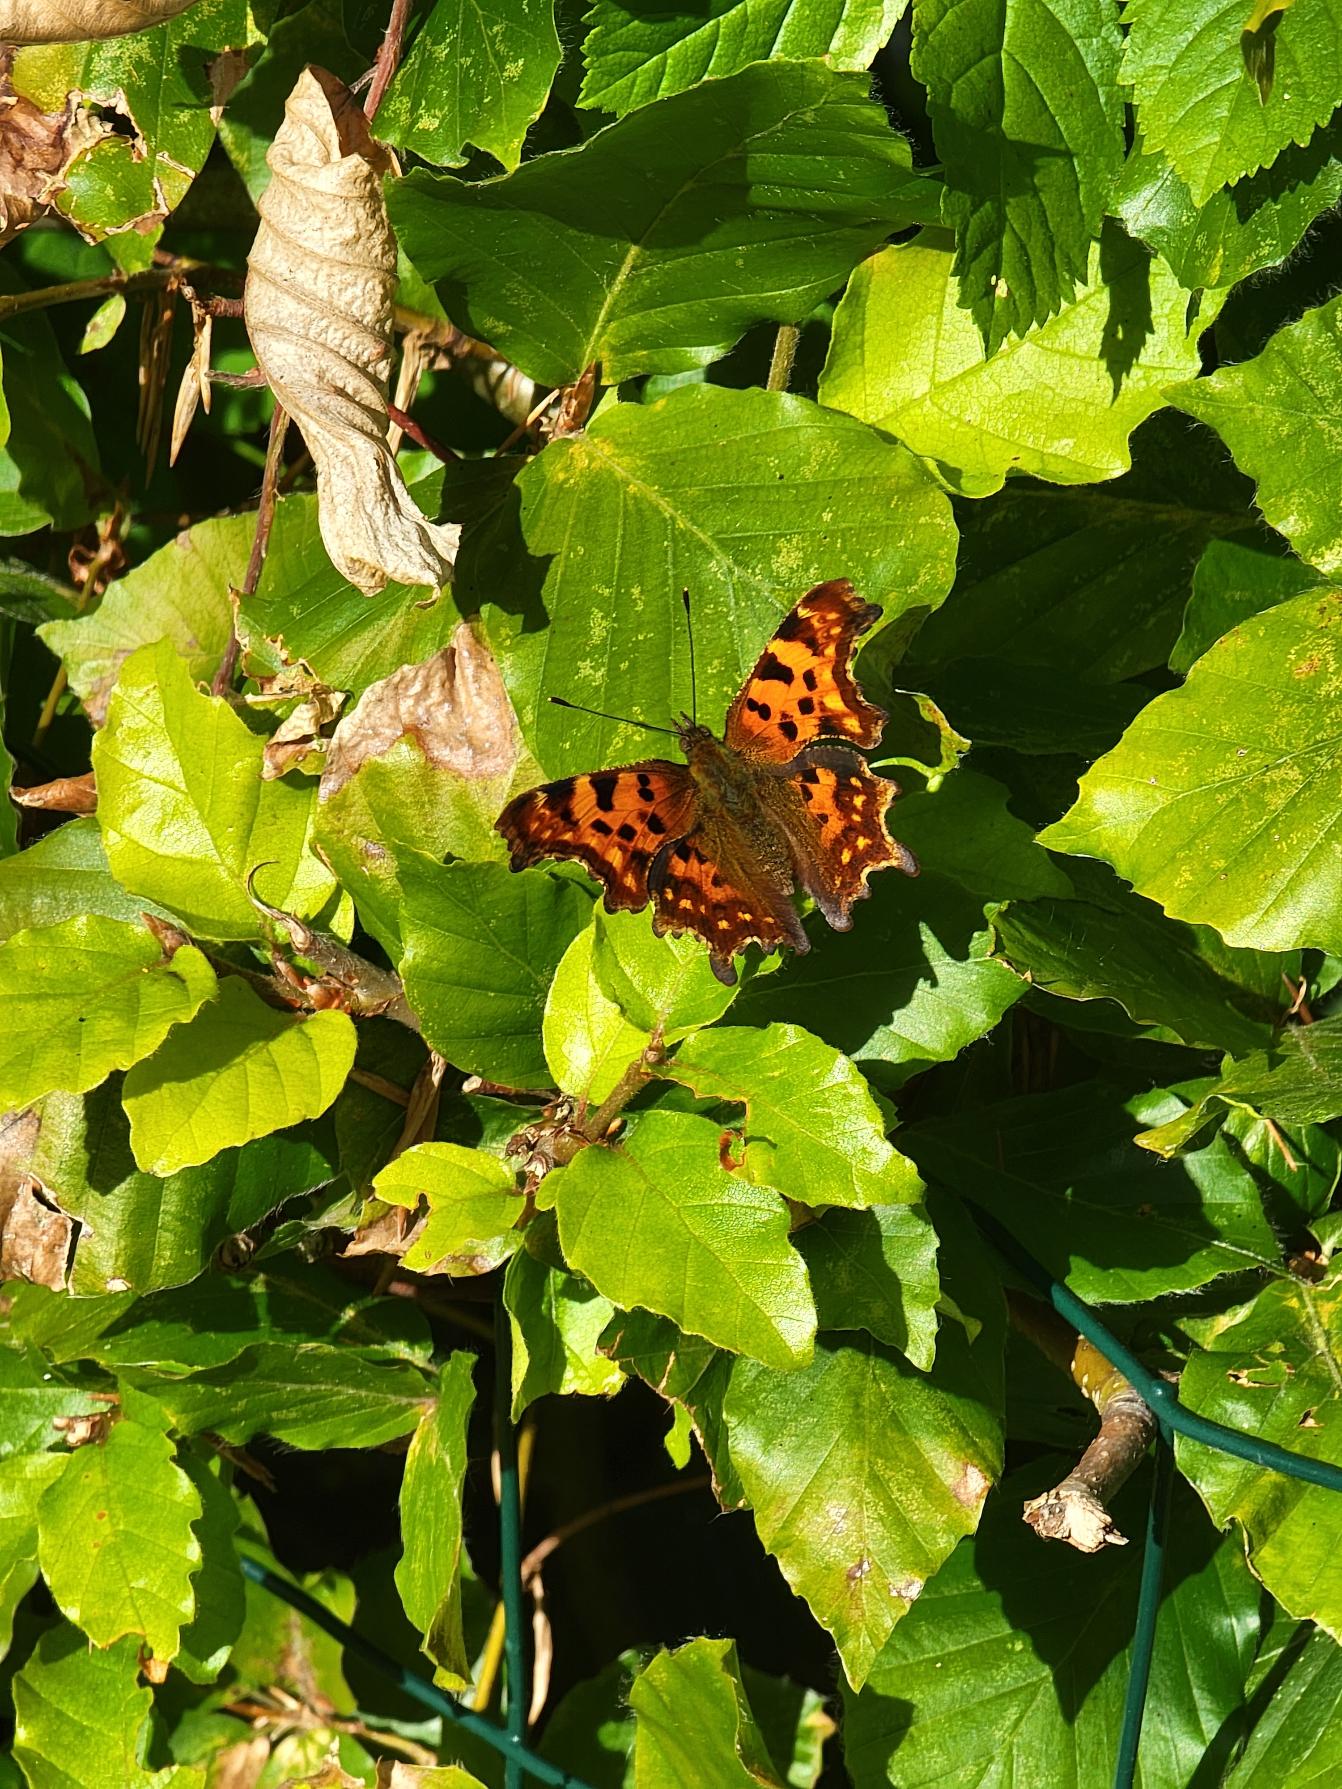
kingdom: Animalia
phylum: Arthropoda
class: Insecta
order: Lepidoptera
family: Nymphalidae
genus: Polygonia
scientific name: Polygonia c-album
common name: Det hvide C
